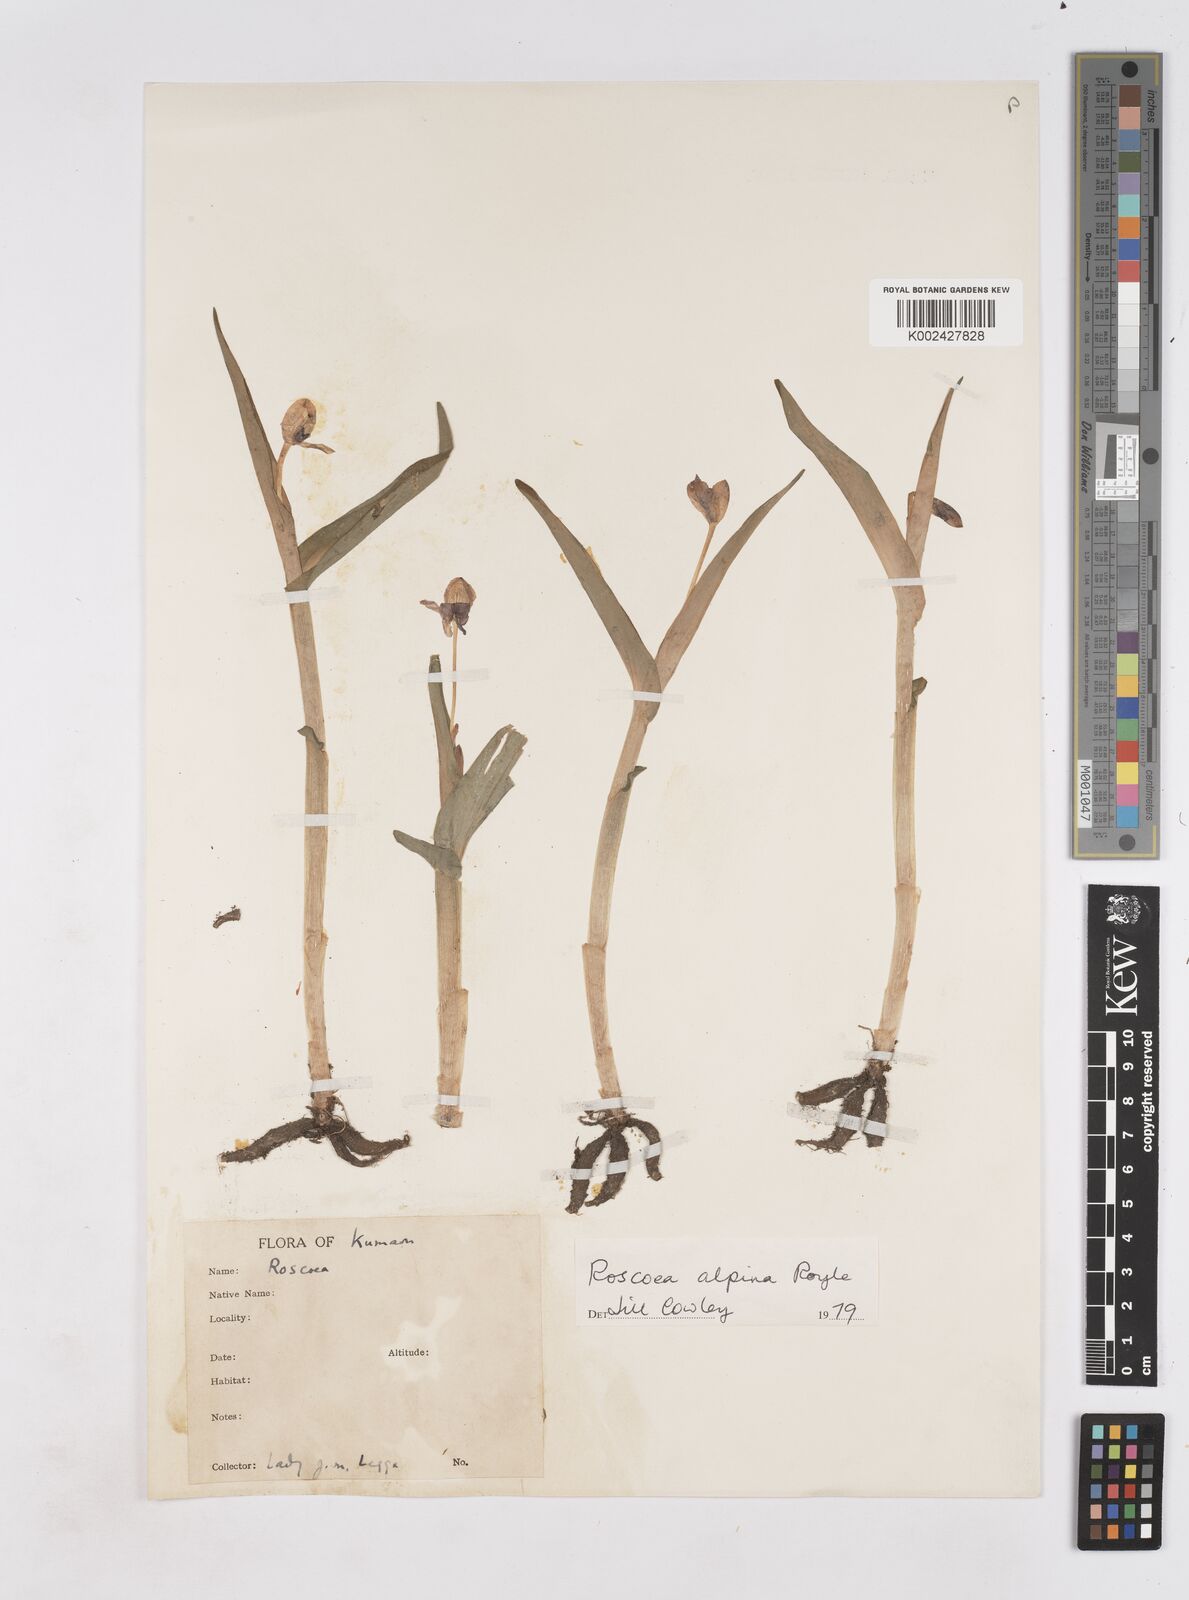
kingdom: Plantae
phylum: Tracheophyta
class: Liliopsida
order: Zingiberales
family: Zingiberaceae
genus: Roscoea
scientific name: Roscoea alpina
